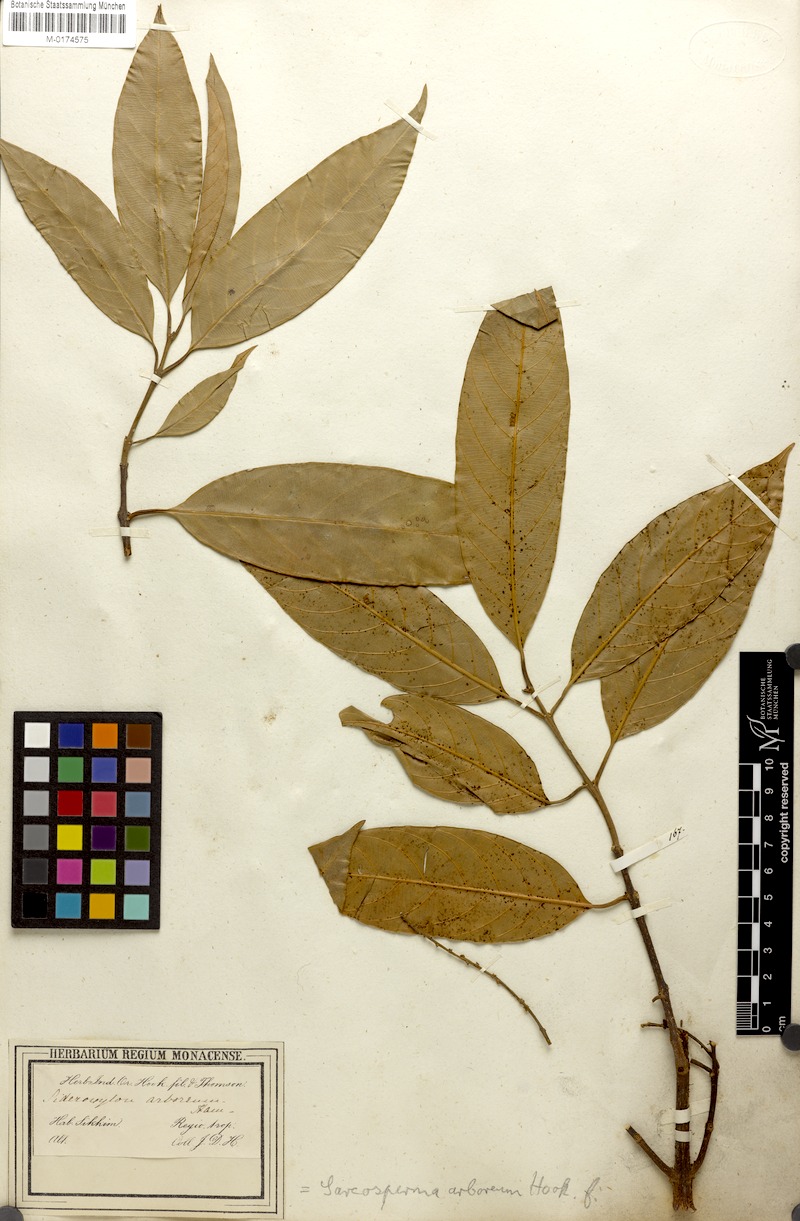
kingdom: Plantae
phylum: Tracheophyta
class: Magnoliopsida
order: Ericales
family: Sapotaceae
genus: Sarcosperma
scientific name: Sarcosperma arboreum
